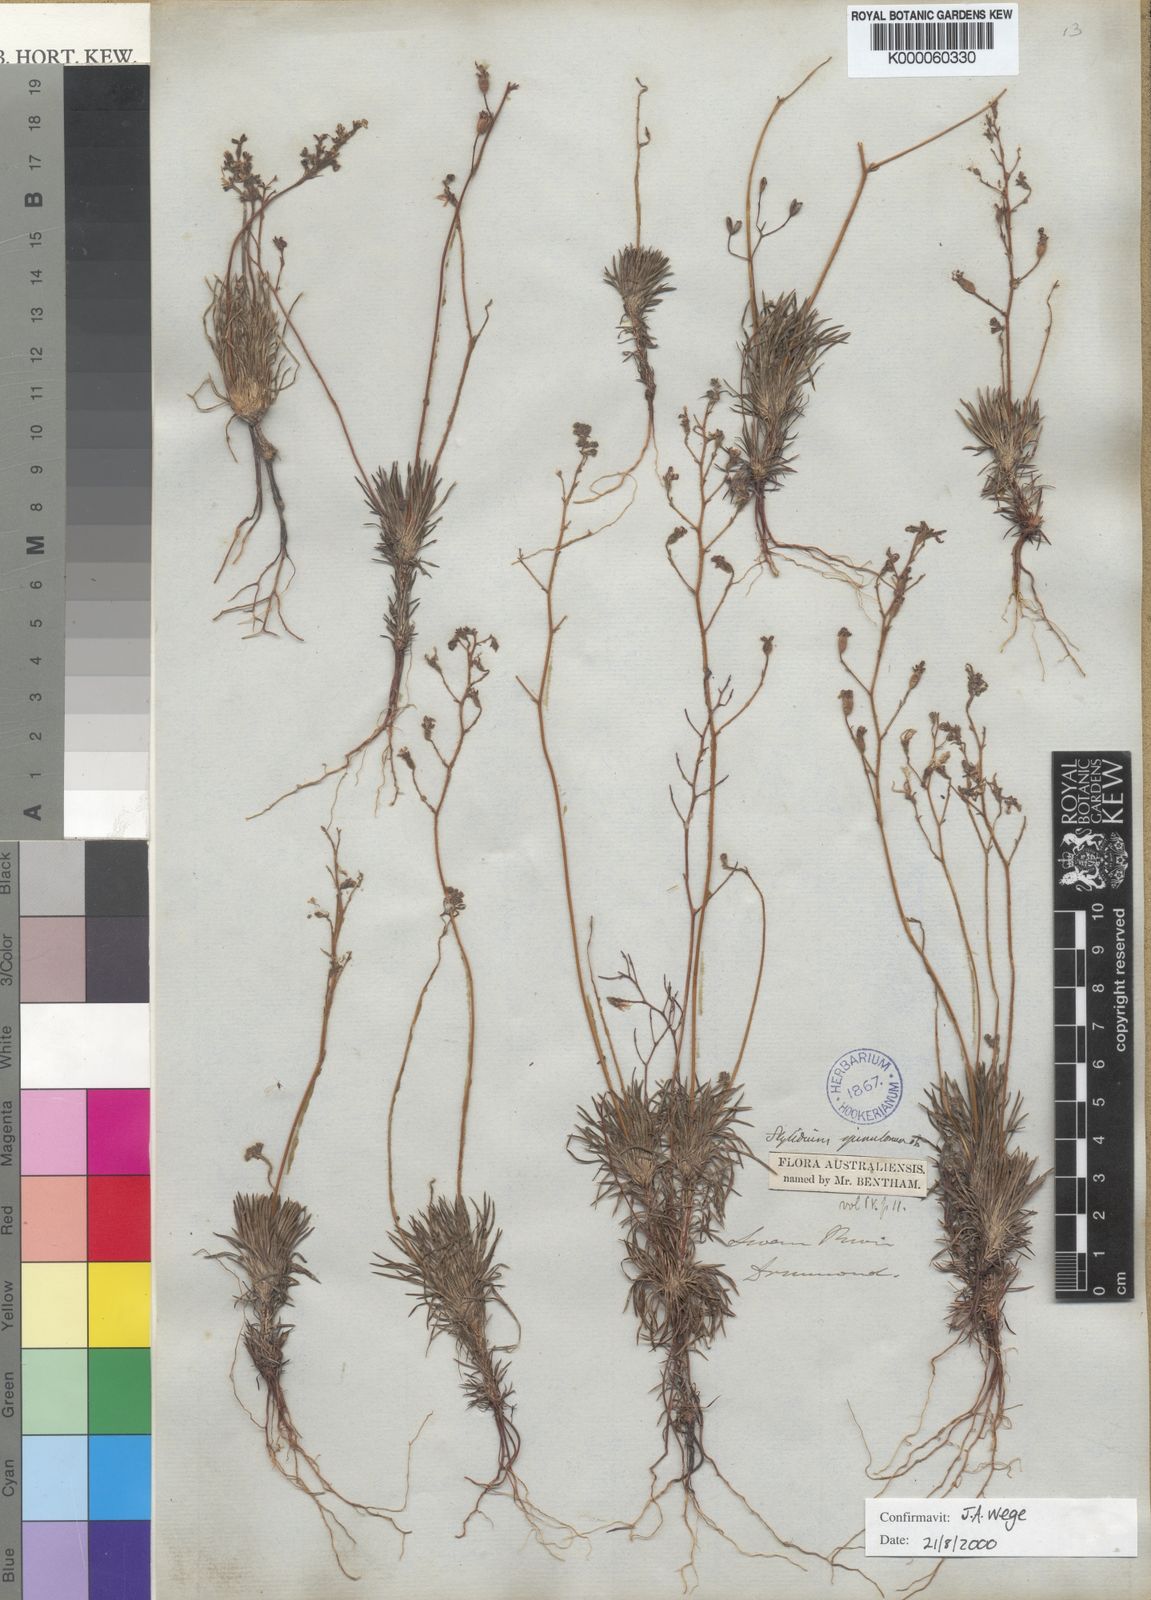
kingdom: Plantae
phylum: Tracheophyta
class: Magnoliopsida
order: Asterales
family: Stylidiaceae
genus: Stylidium
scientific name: Stylidium spinulosum
